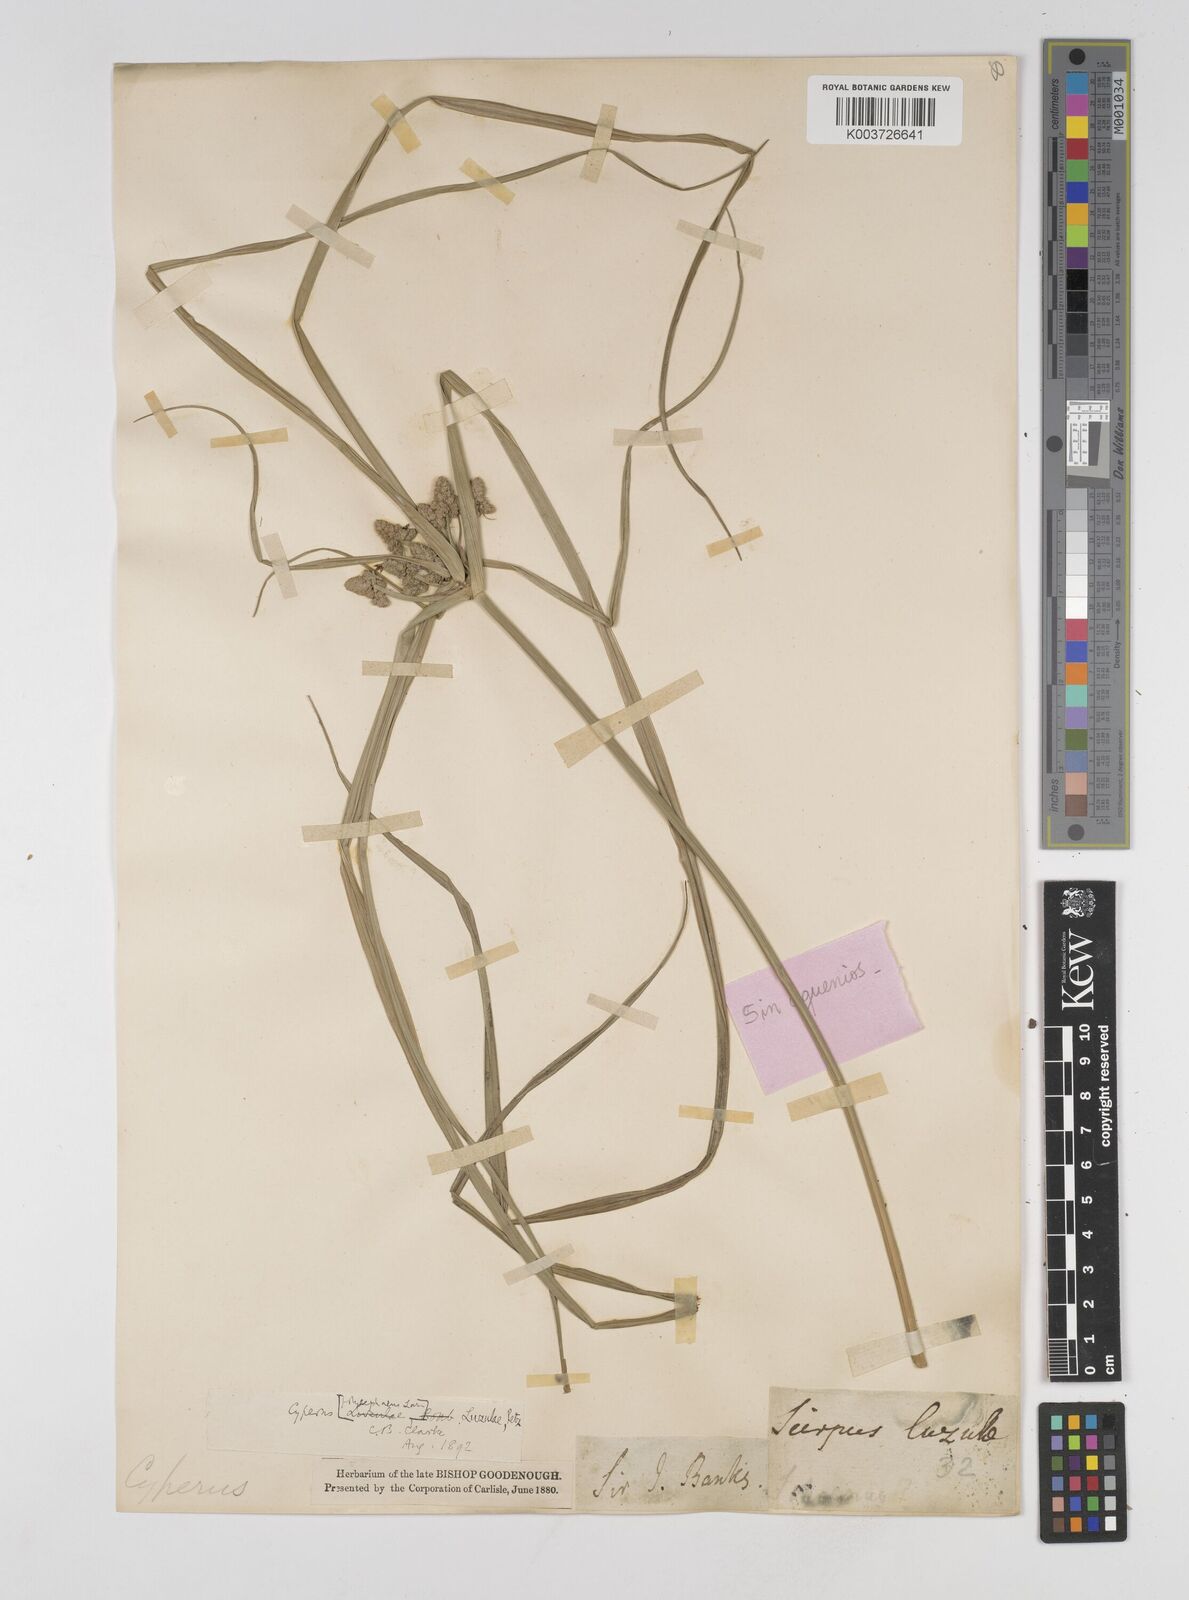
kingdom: Plantae
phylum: Tracheophyta
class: Liliopsida
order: Poales
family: Cyperaceae
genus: Cyperus
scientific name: Cyperus luzulae
